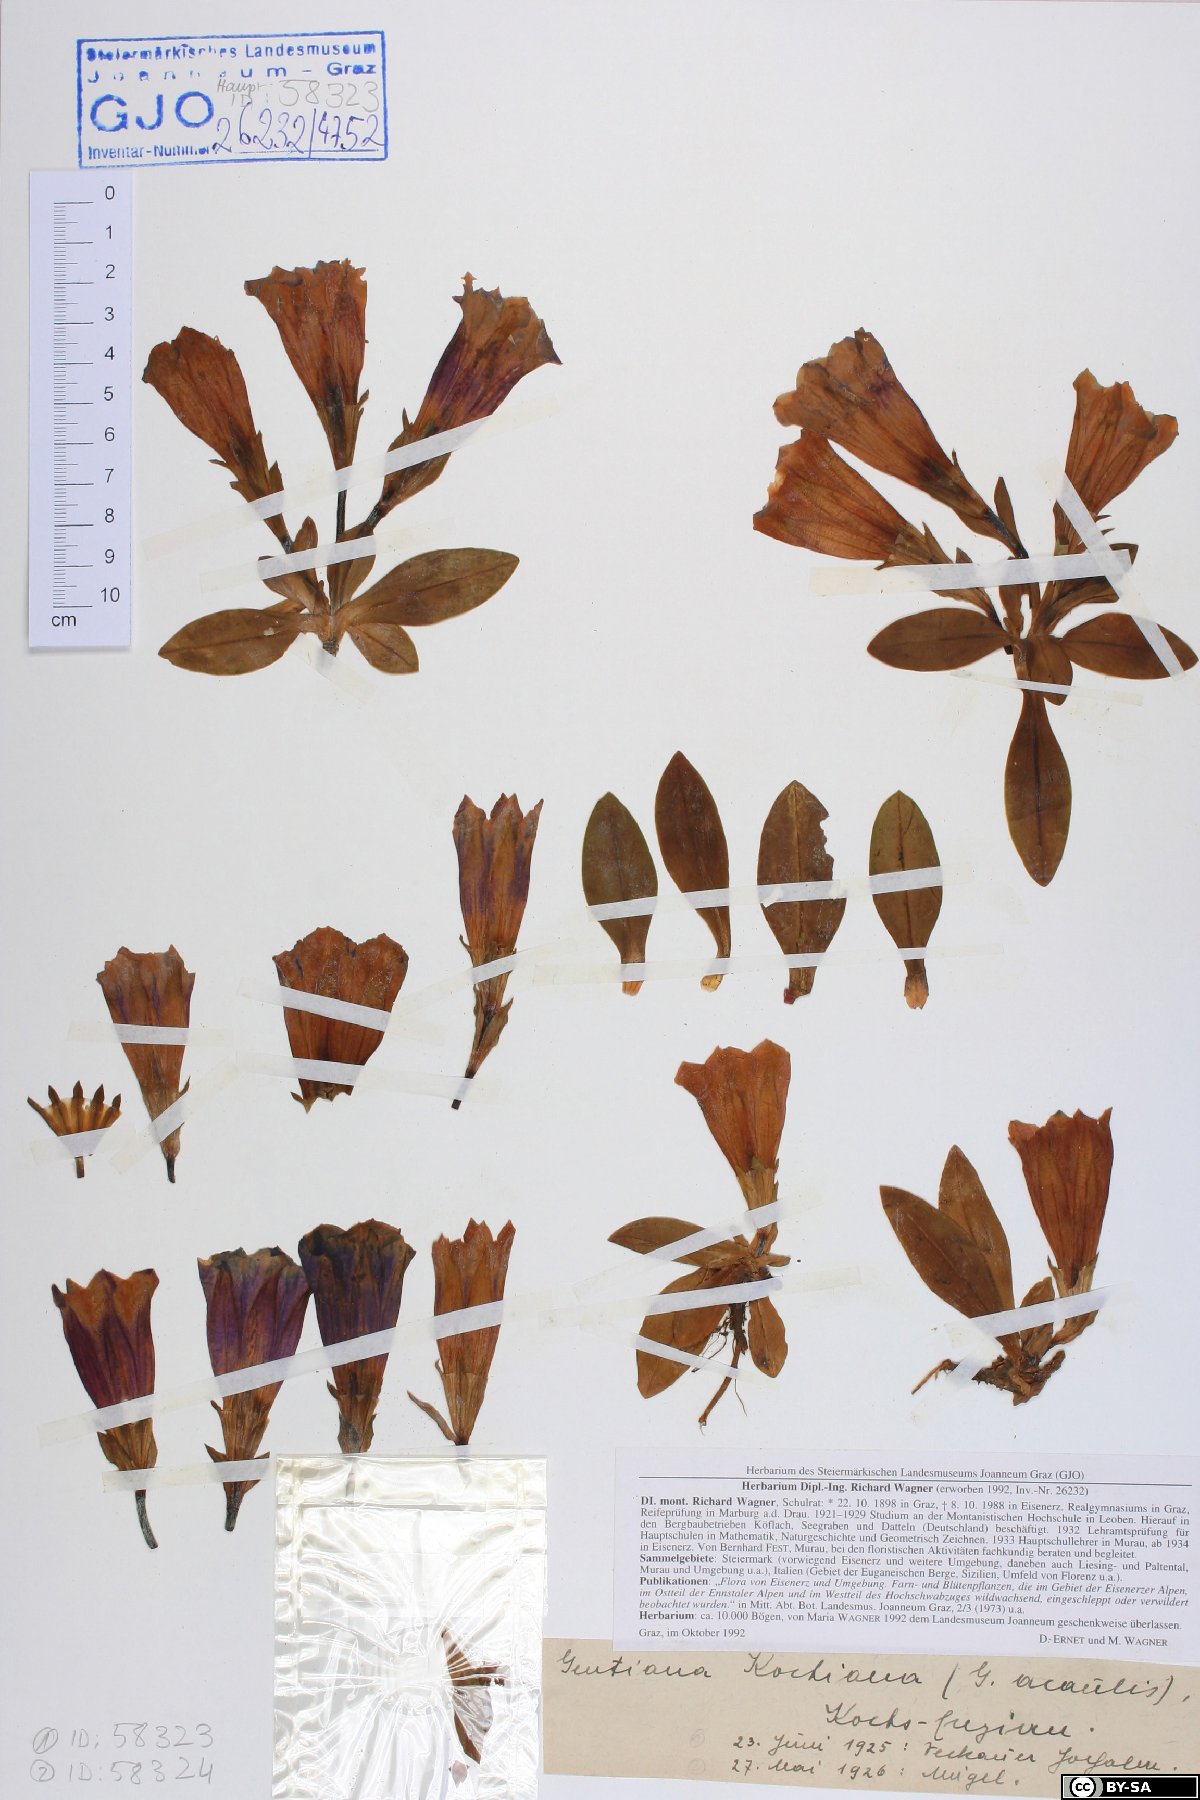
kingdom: Plantae
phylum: Tracheophyta
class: Magnoliopsida
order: Gentianales
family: Gentianaceae
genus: Gentiana
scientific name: Gentiana acaulis
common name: Trumpet gentian
